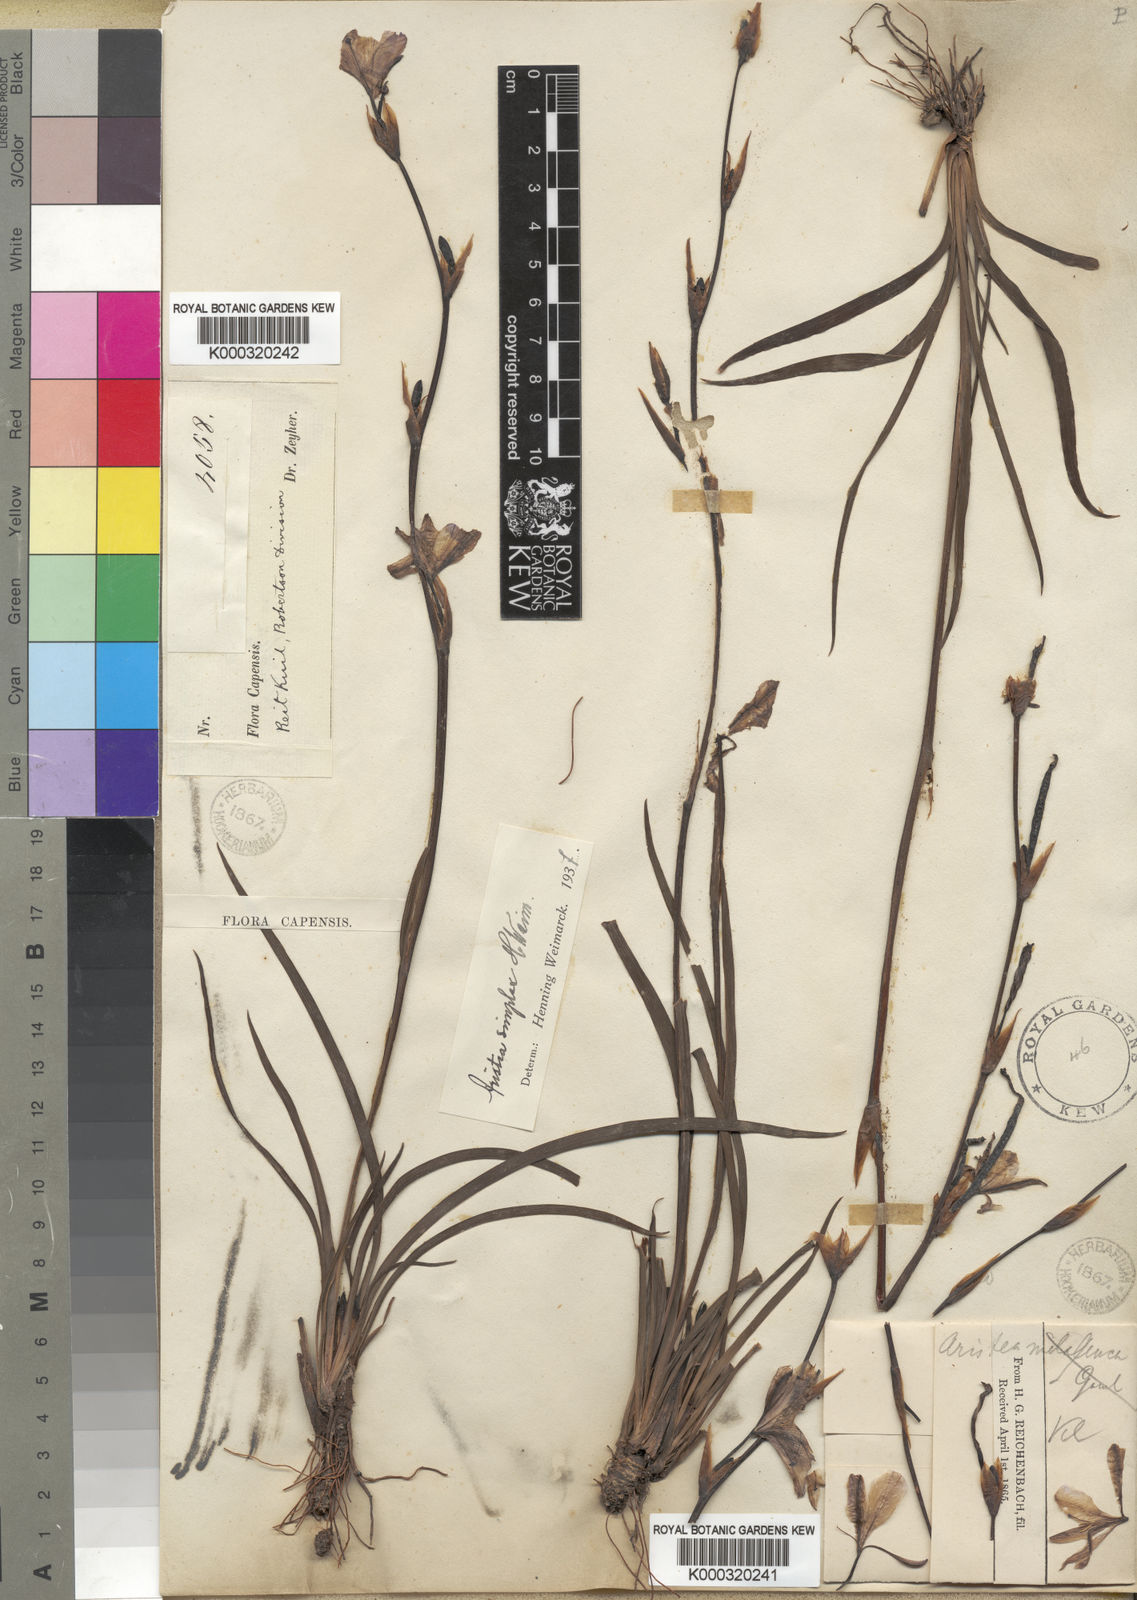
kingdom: Plantae
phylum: Tracheophyta
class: Liliopsida
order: Asparagales
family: Iridaceae
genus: Aristea
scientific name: Aristea simplex
